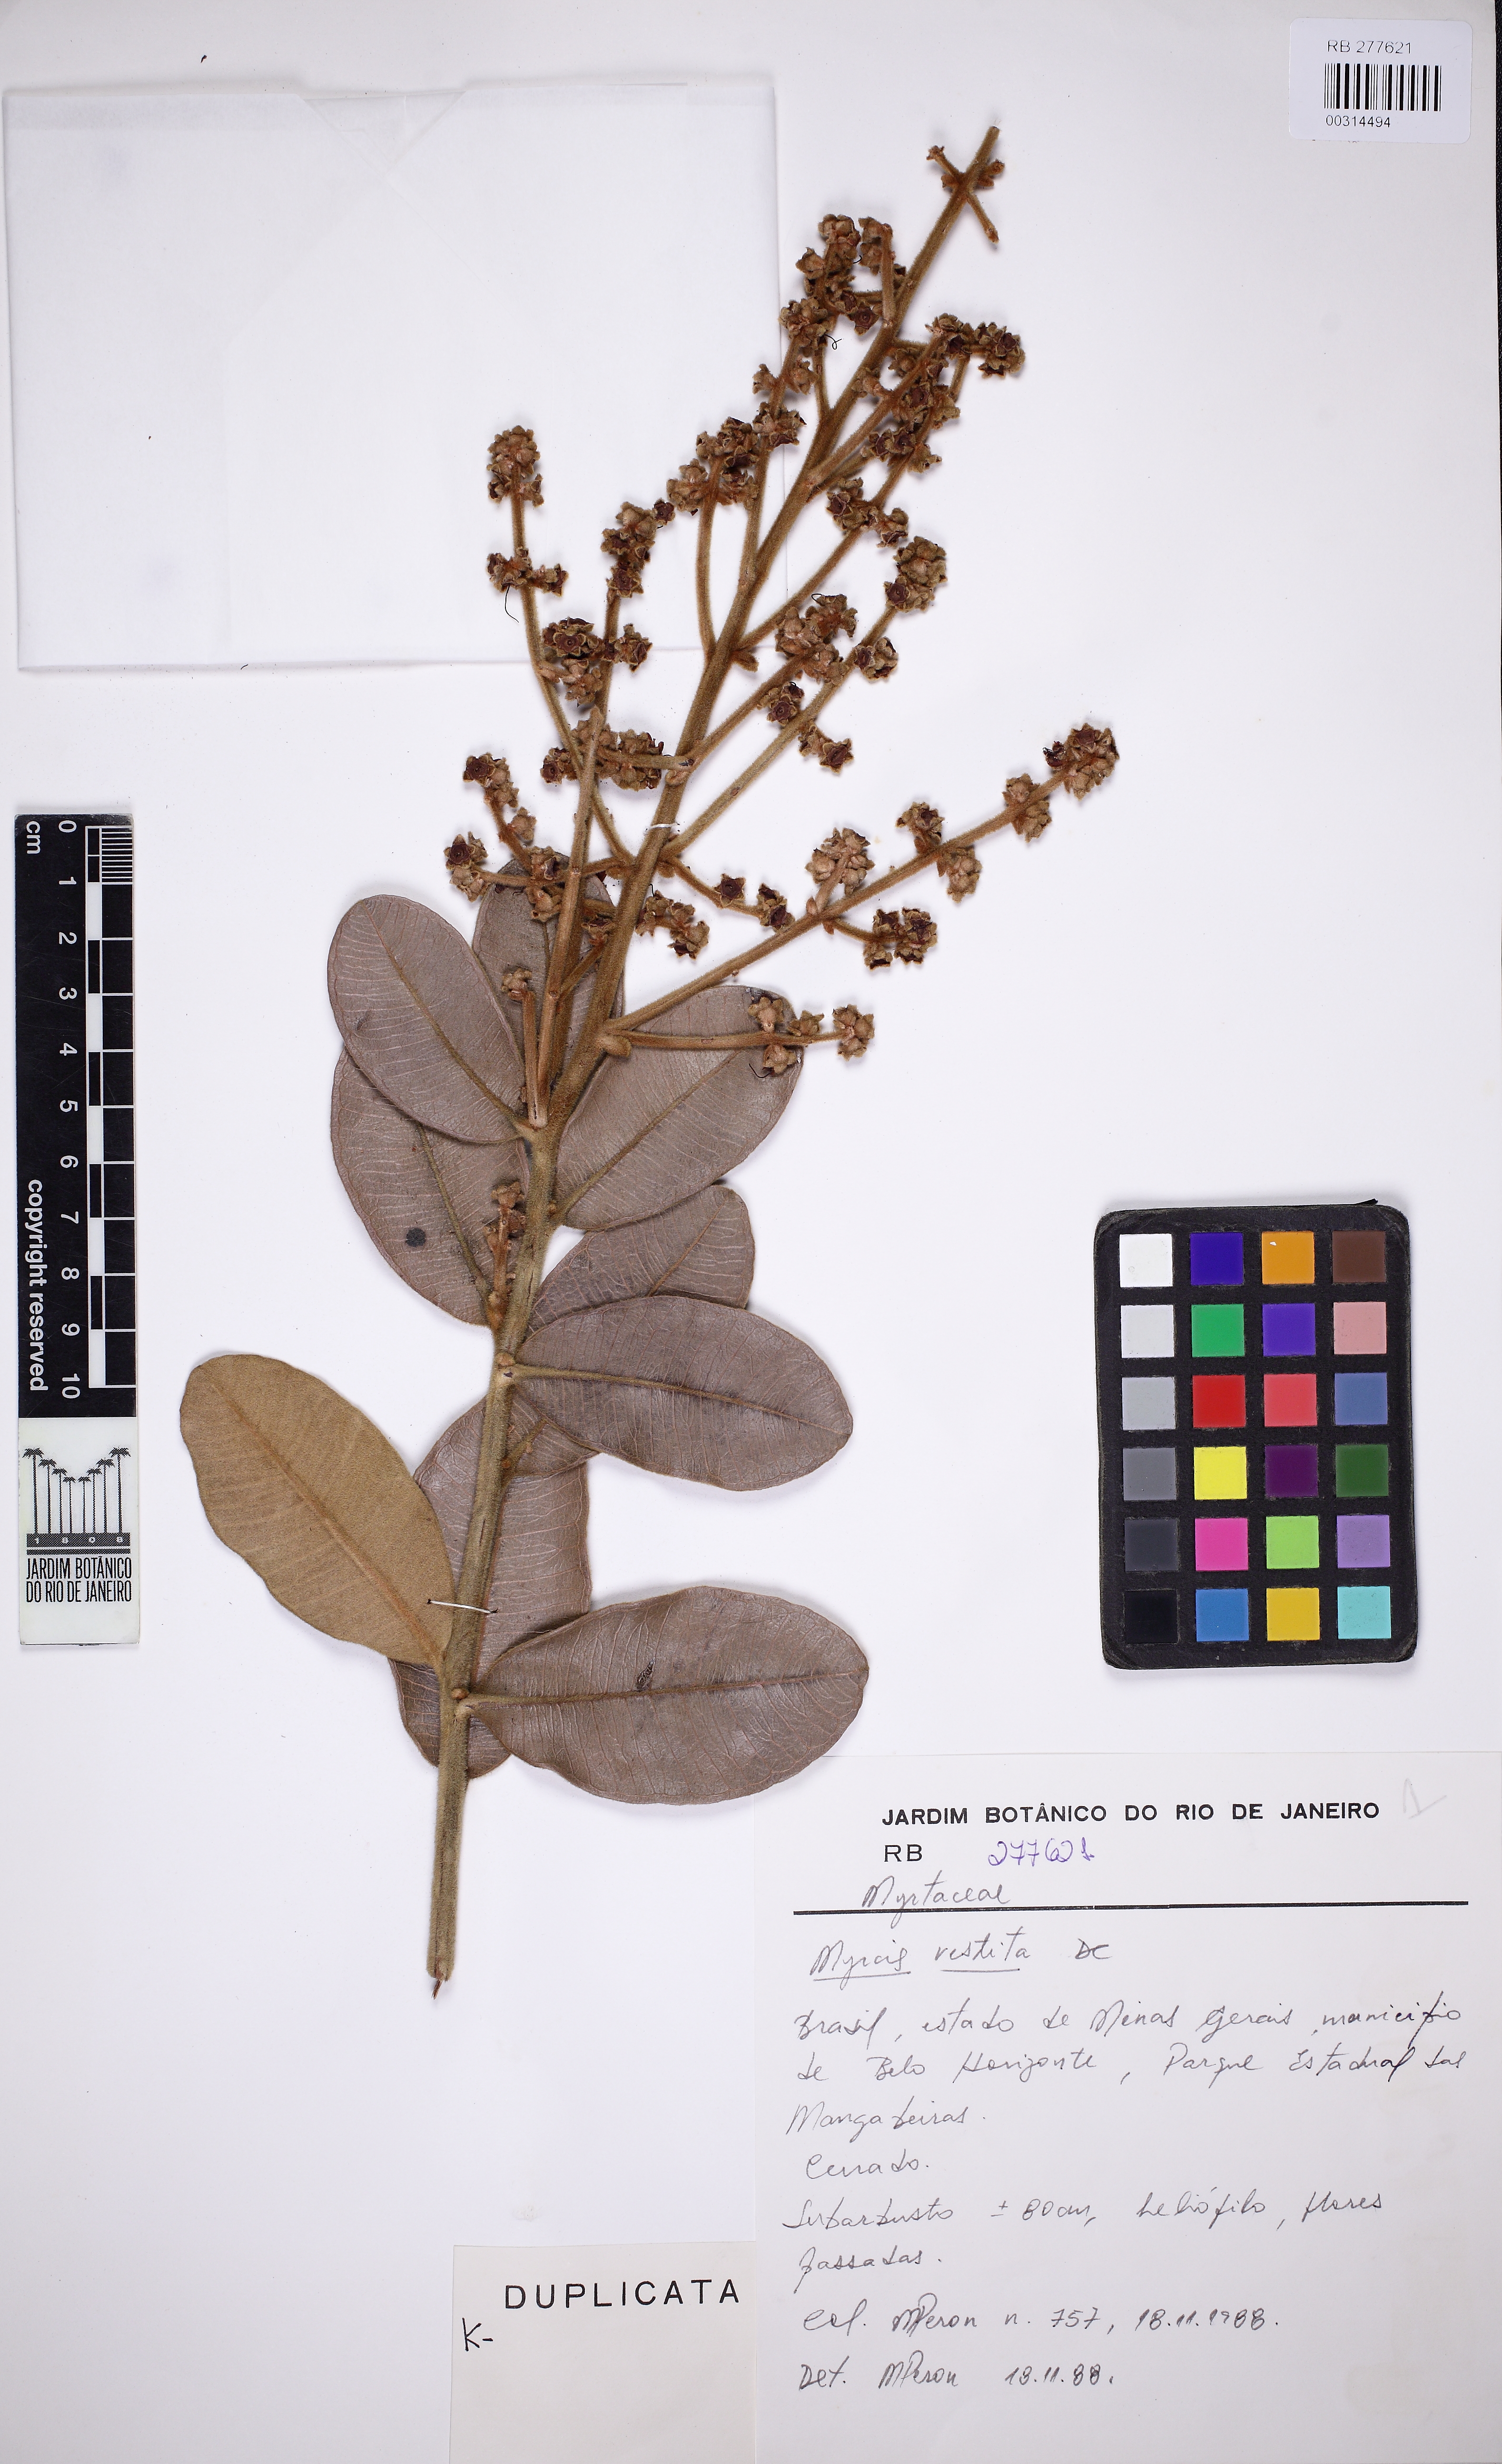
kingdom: Plantae
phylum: Tracheophyta
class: Magnoliopsida
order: Myrtales
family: Myrtaceae
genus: Myrcia
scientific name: Myrcia vestita
